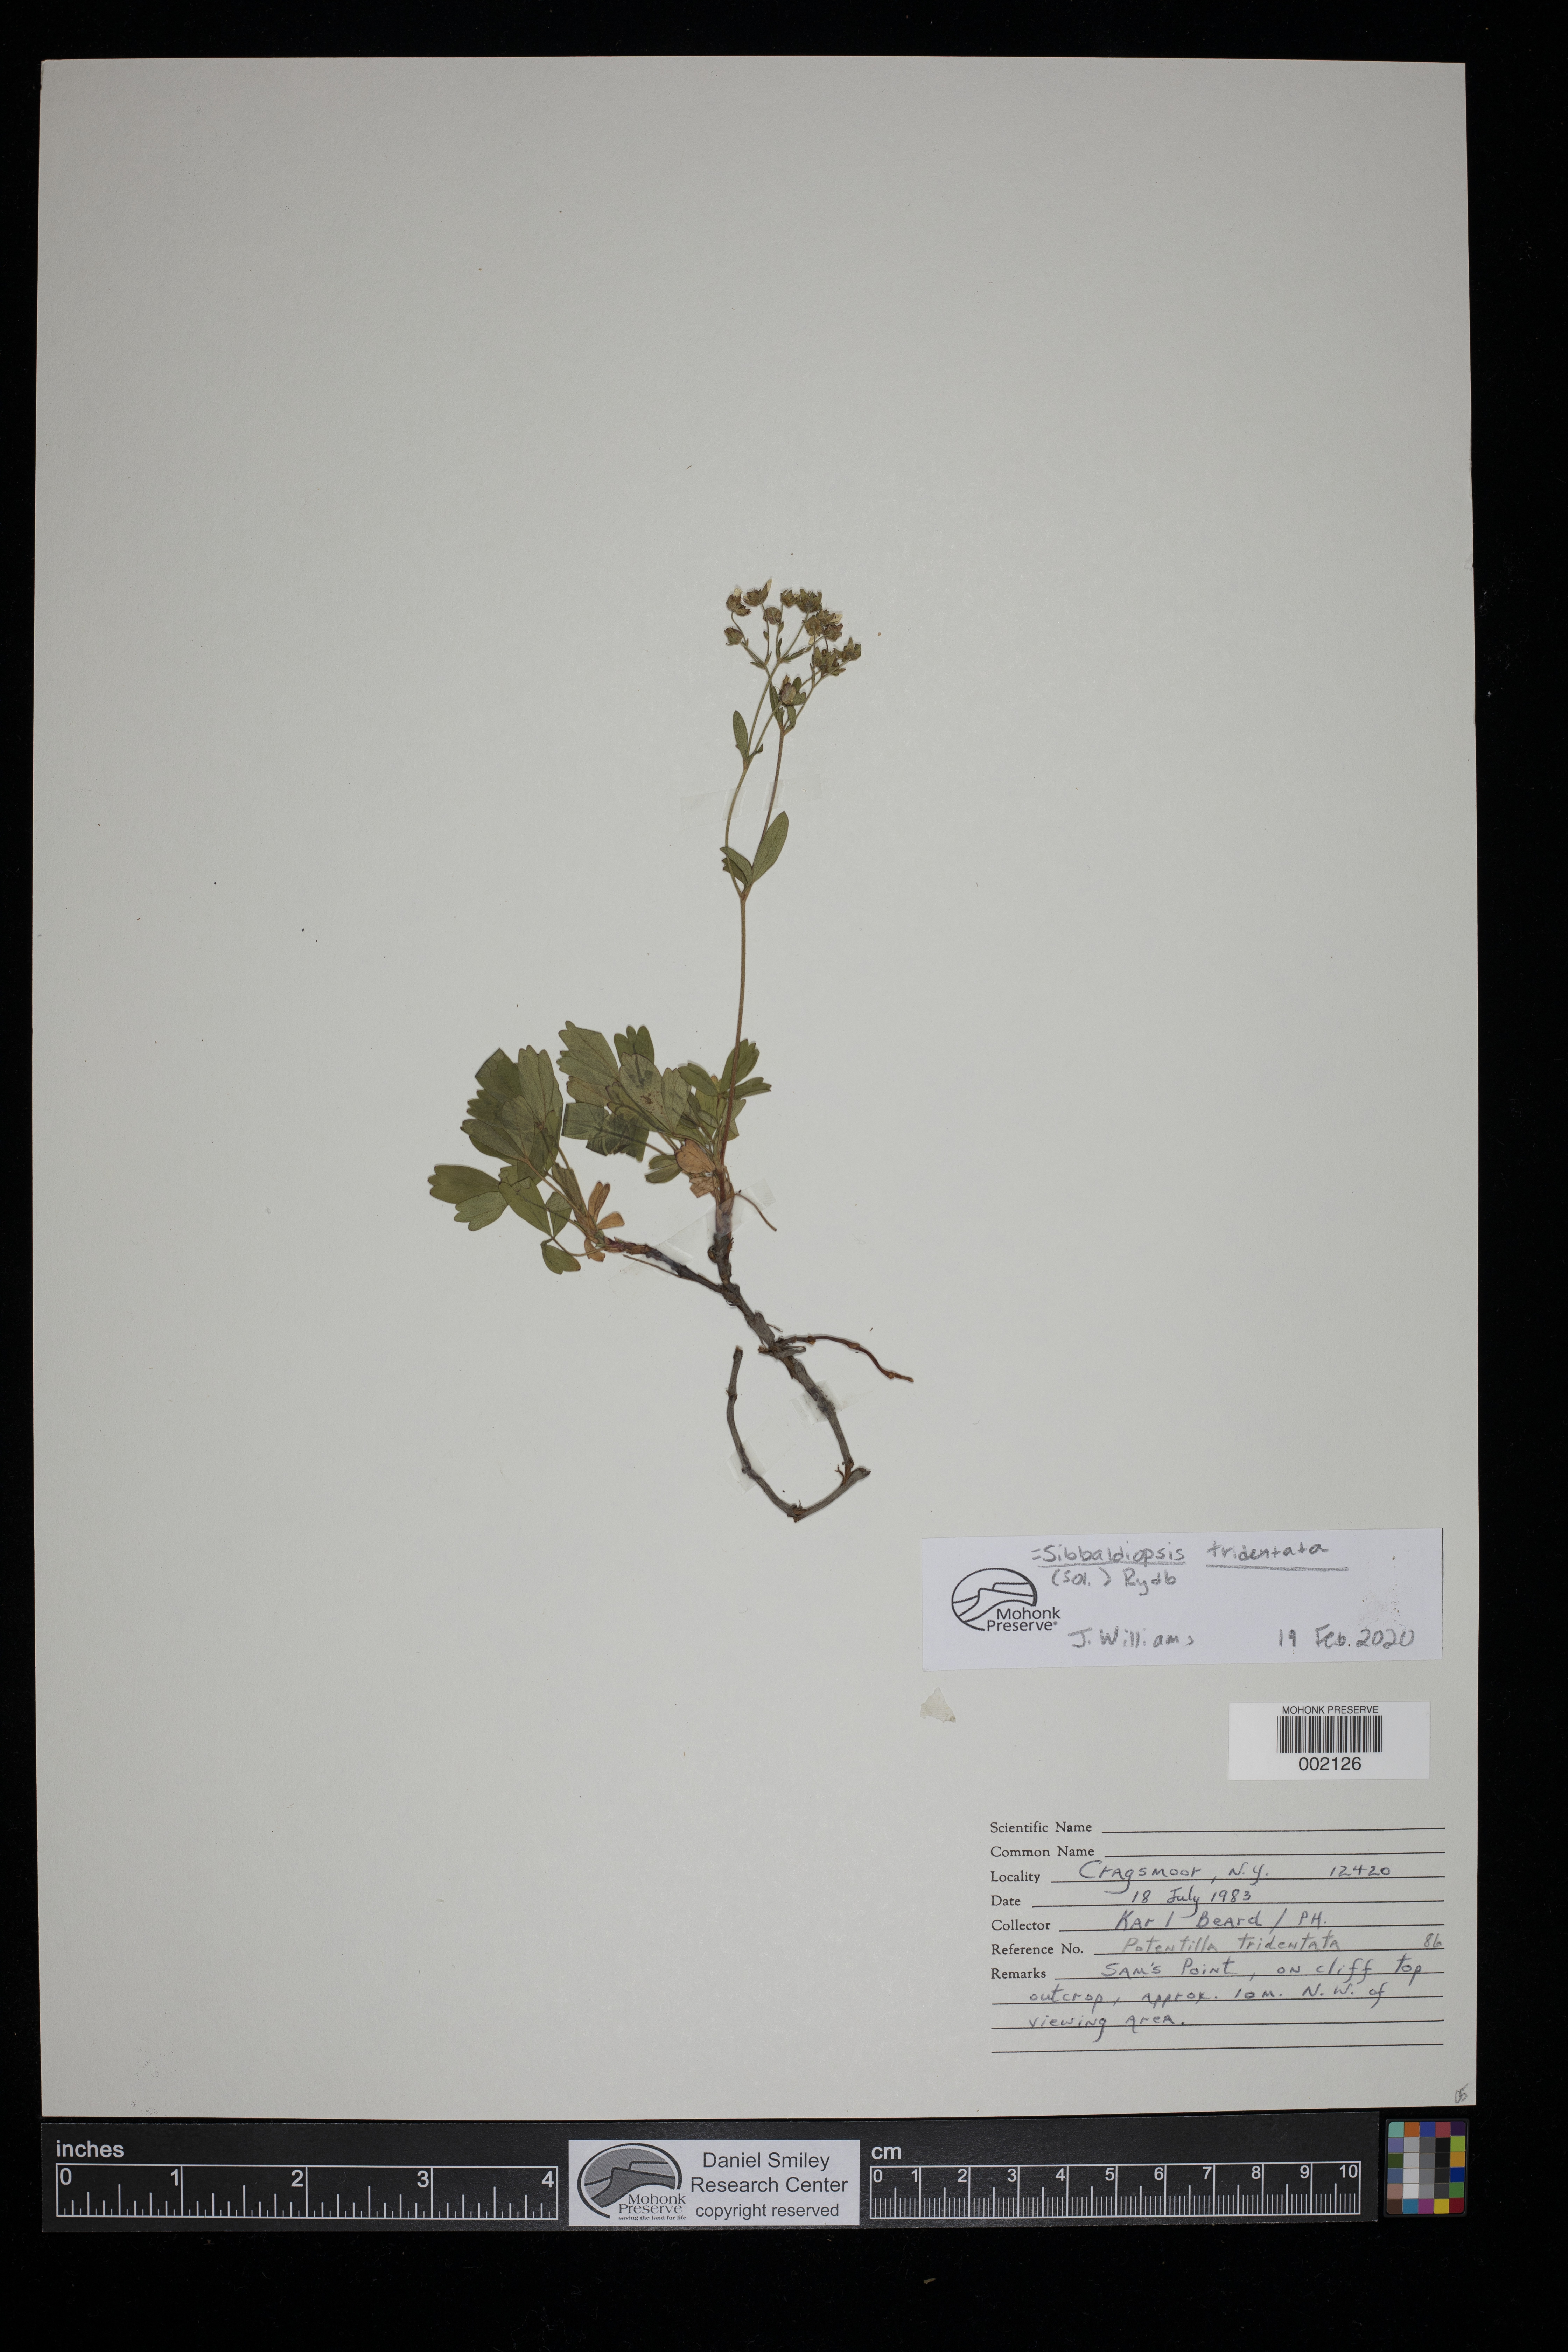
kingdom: Plantae
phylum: Tracheophyta
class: Magnoliopsida
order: Rosales
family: Rosaceae
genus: Sibbaldia
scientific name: Sibbaldia tridentata
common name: Three-toothed cinquefoil
